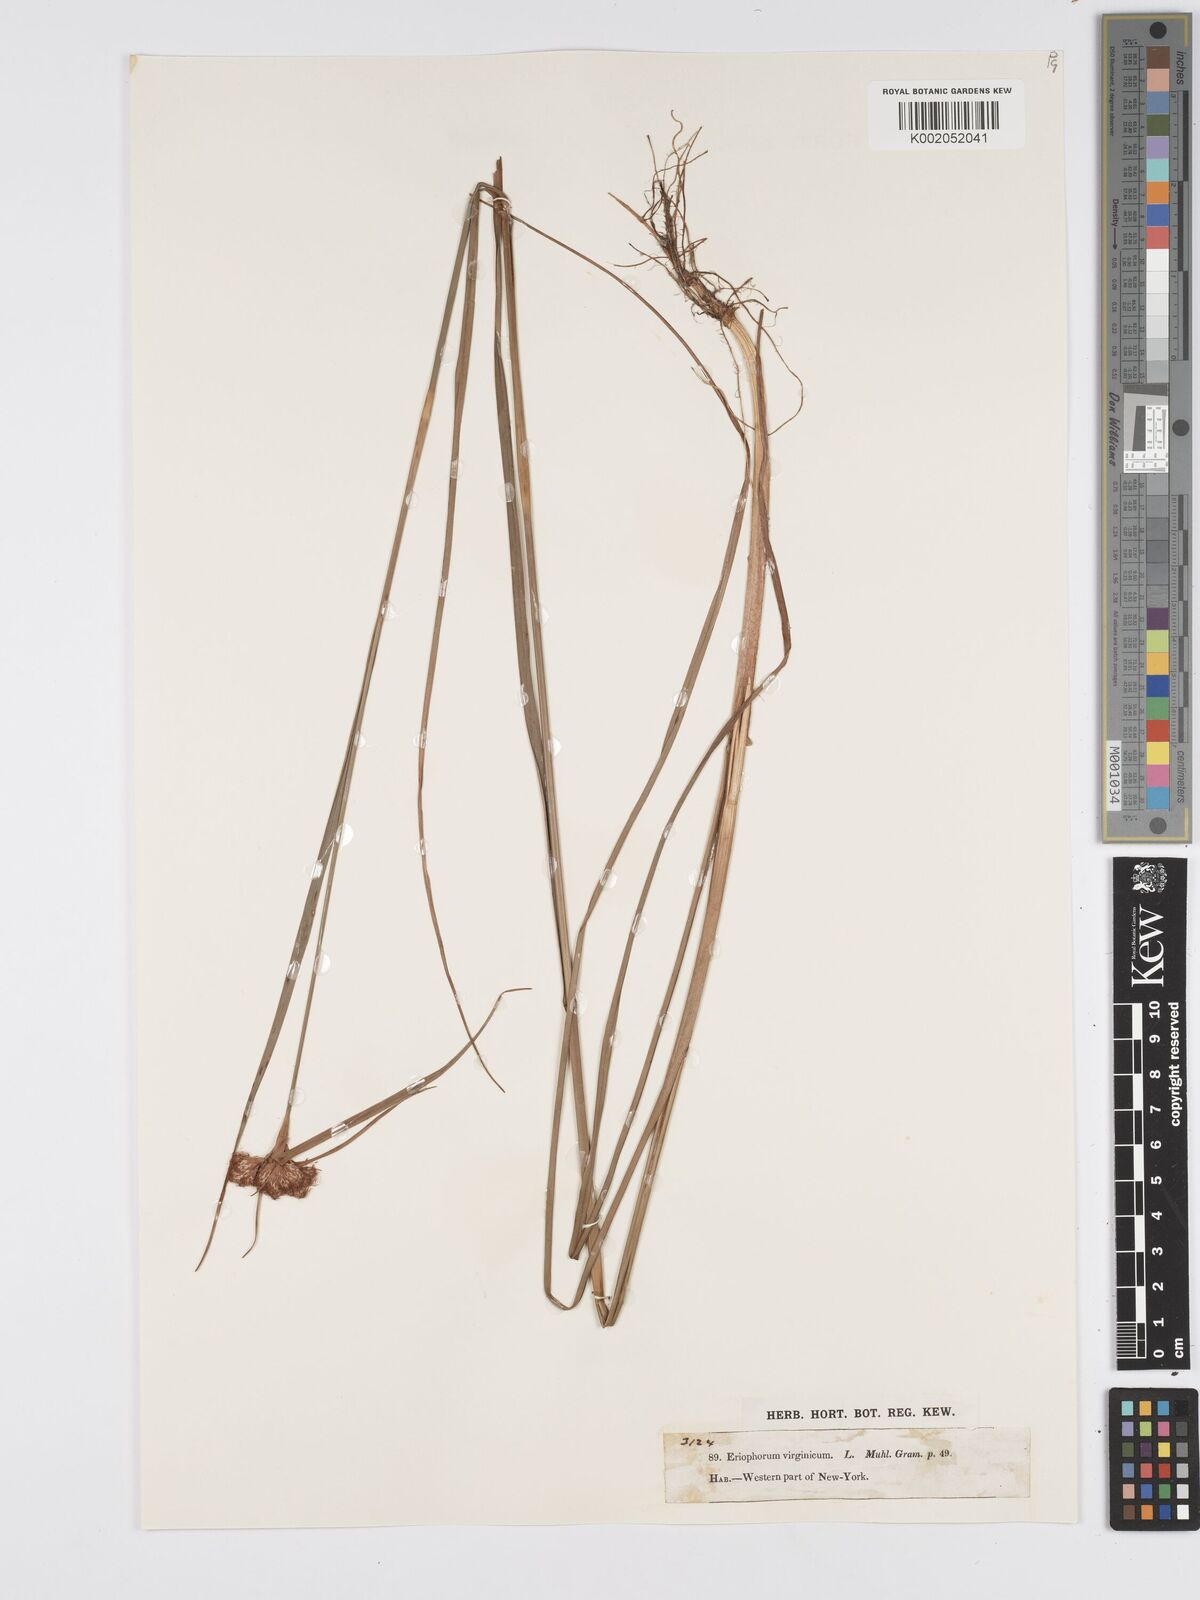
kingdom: Plantae
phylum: Tracheophyta
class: Liliopsida
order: Poales
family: Cyperaceae
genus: Eriophorum
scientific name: Eriophorum virginicum
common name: Tawny cottongrass
